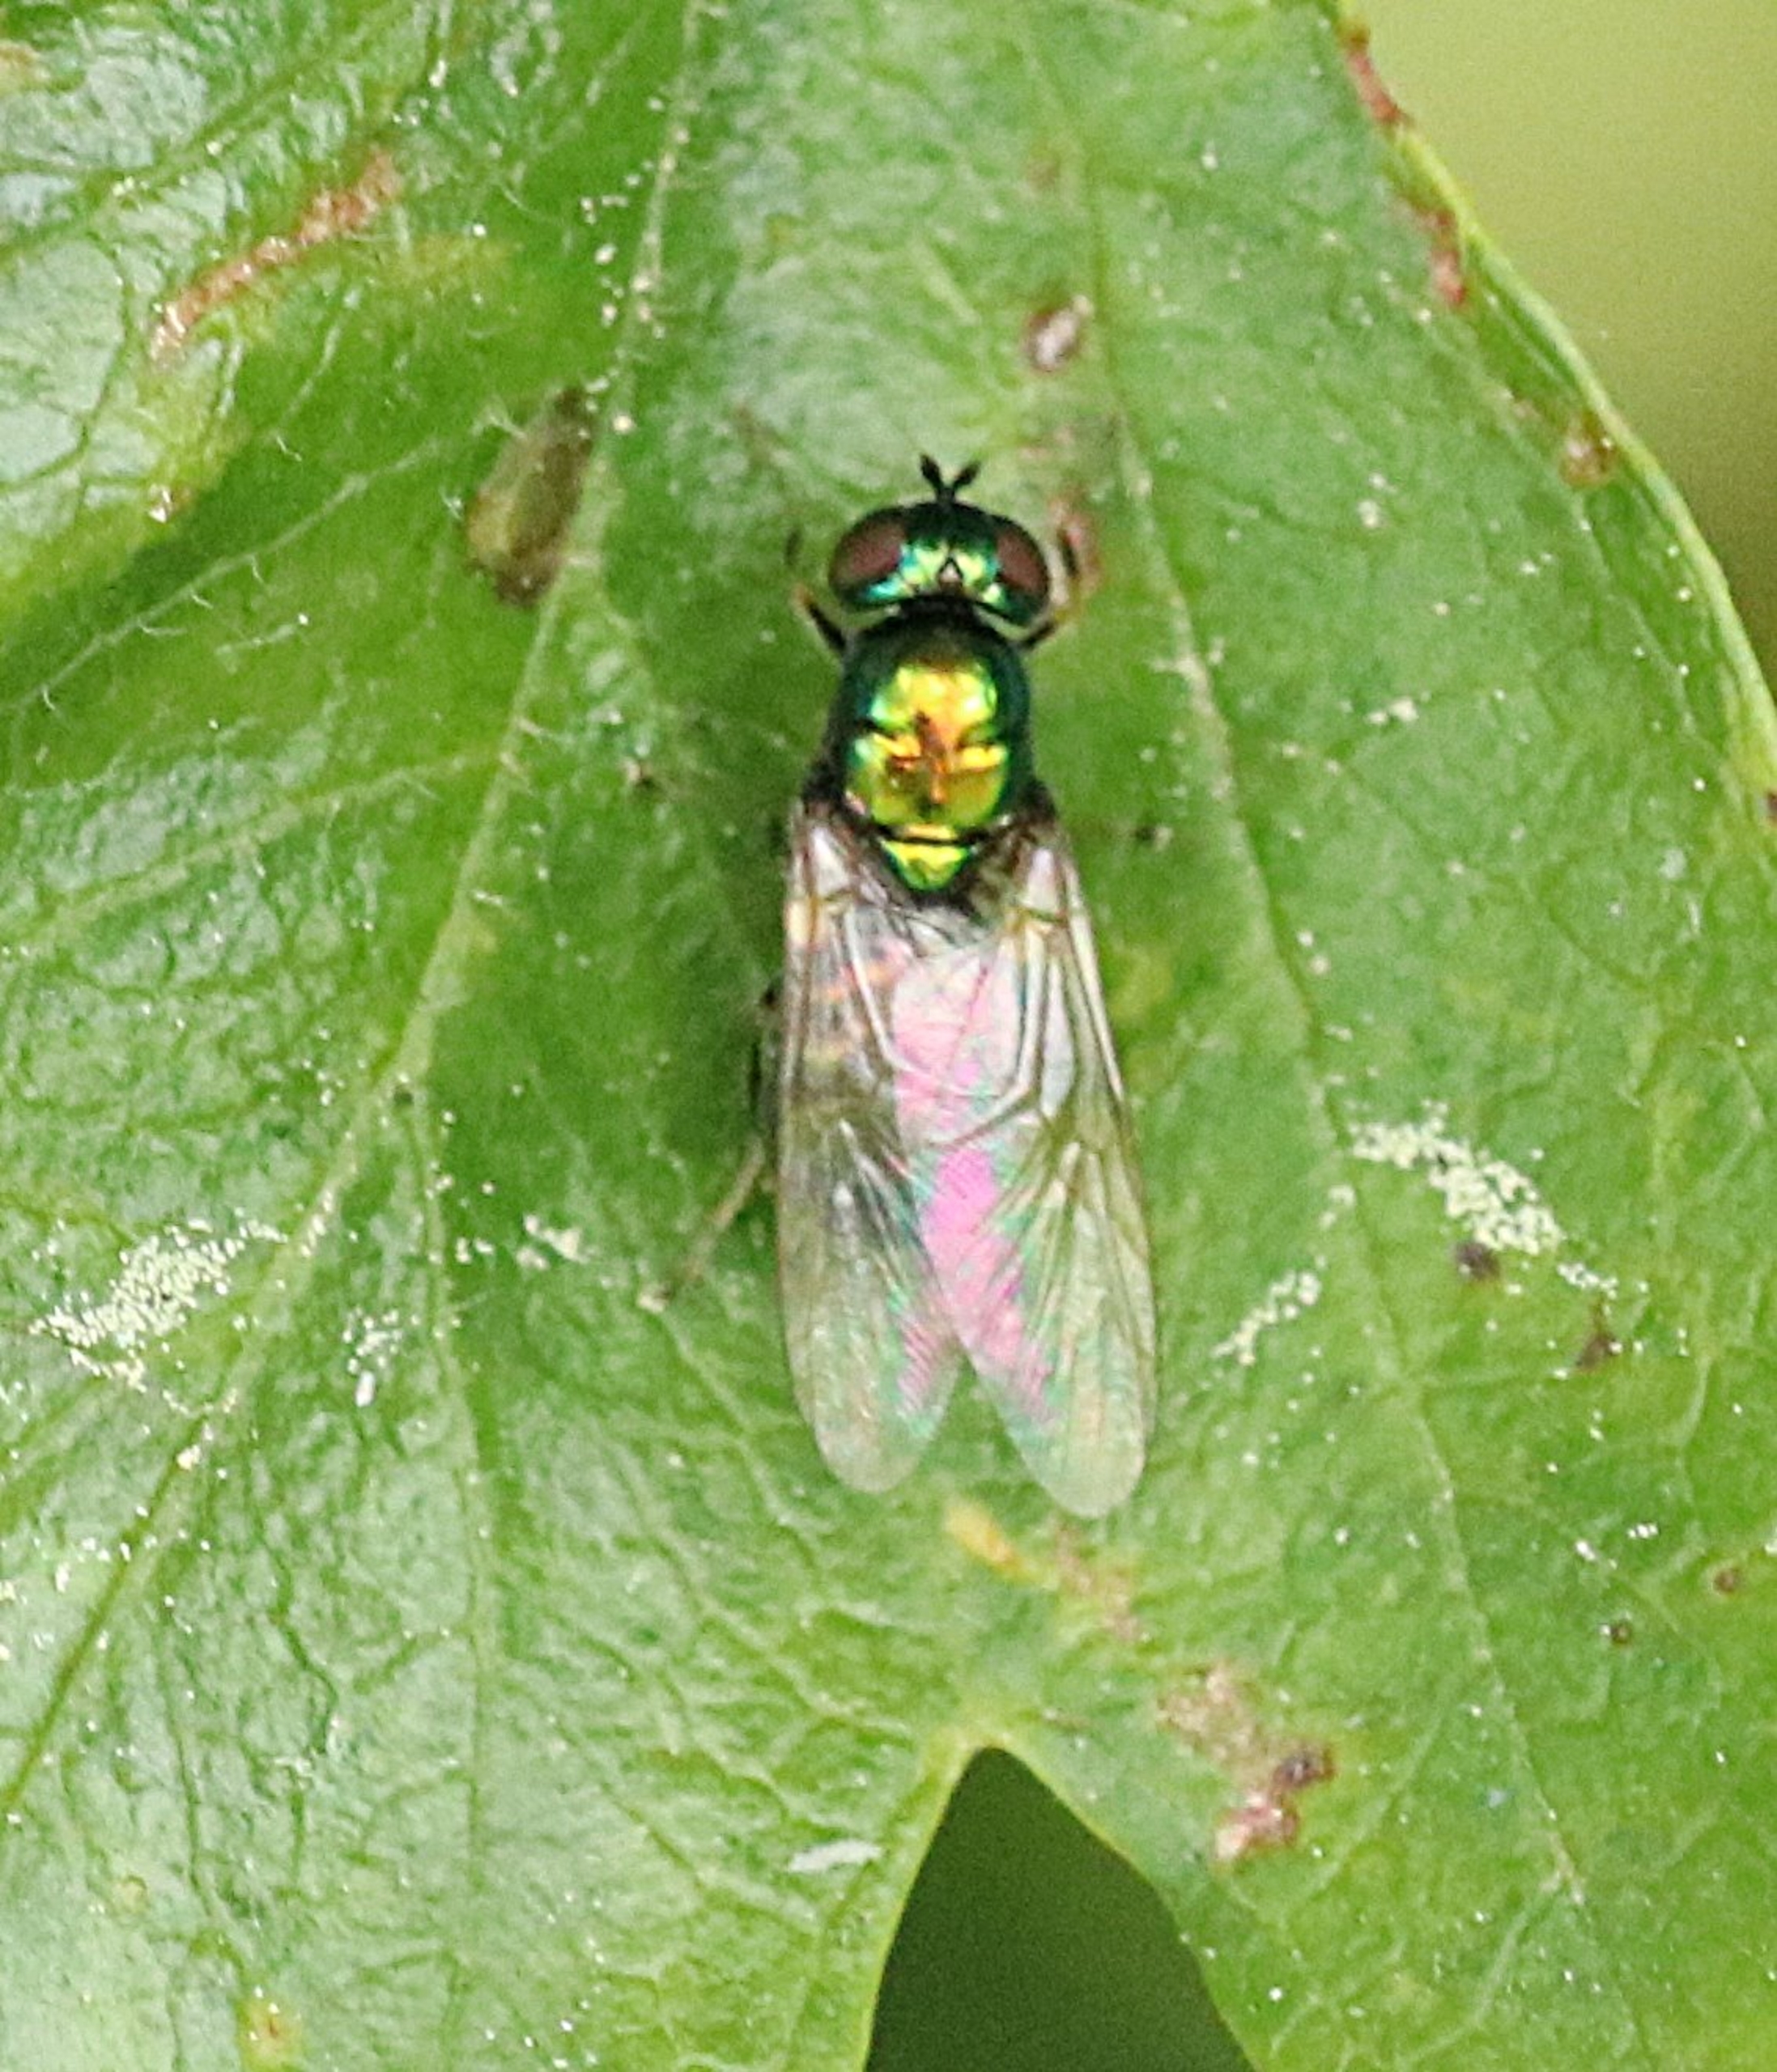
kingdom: Animalia
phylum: Arthropoda
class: Insecta
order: Diptera
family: Stratiomyidae
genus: Microchrysa
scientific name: Microchrysa polita
